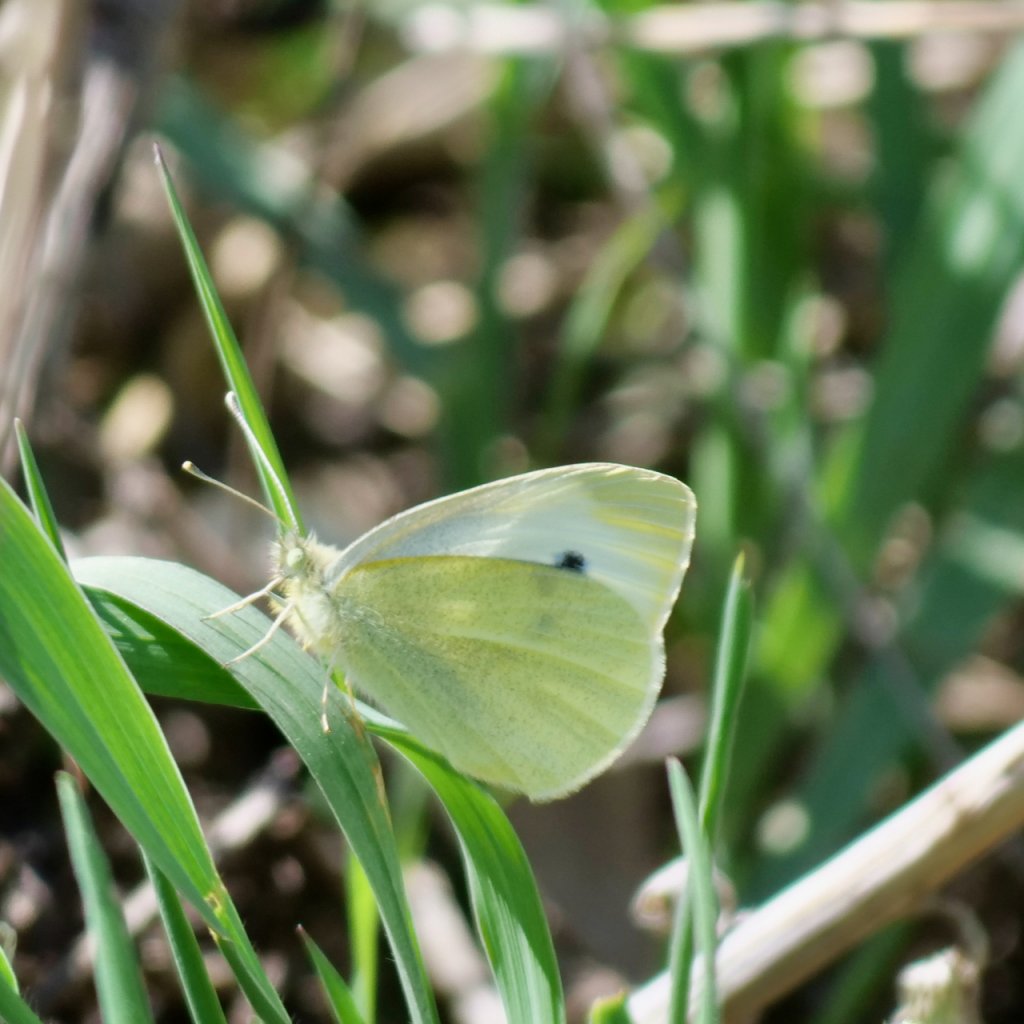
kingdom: Animalia
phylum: Arthropoda
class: Insecta
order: Lepidoptera
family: Pieridae
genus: Pieris
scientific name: Pieris rapae
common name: Cabbage White
